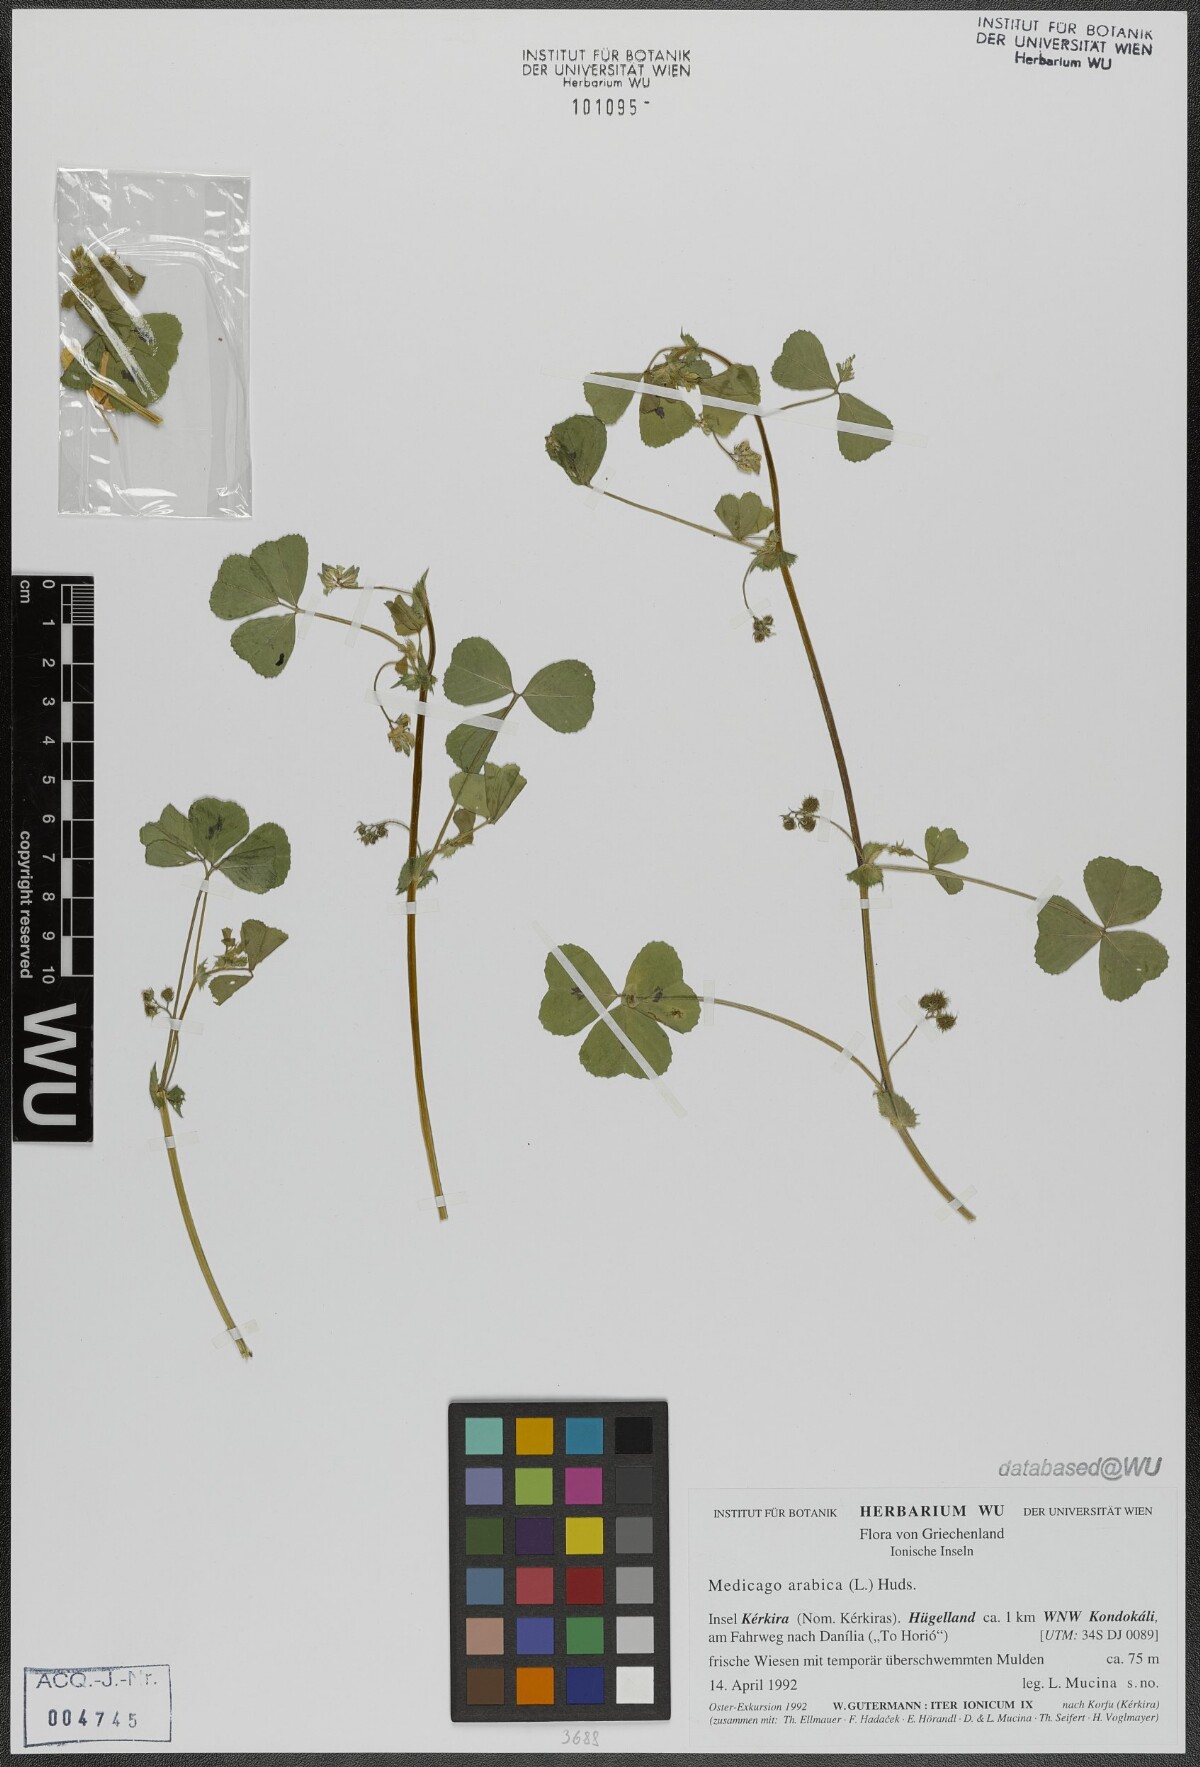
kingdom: Plantae
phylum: Tracheophyta
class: Magnoliopsida
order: Fabales
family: Fabaceae
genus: Medicago
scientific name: Medicago arabica
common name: Spotted medick
